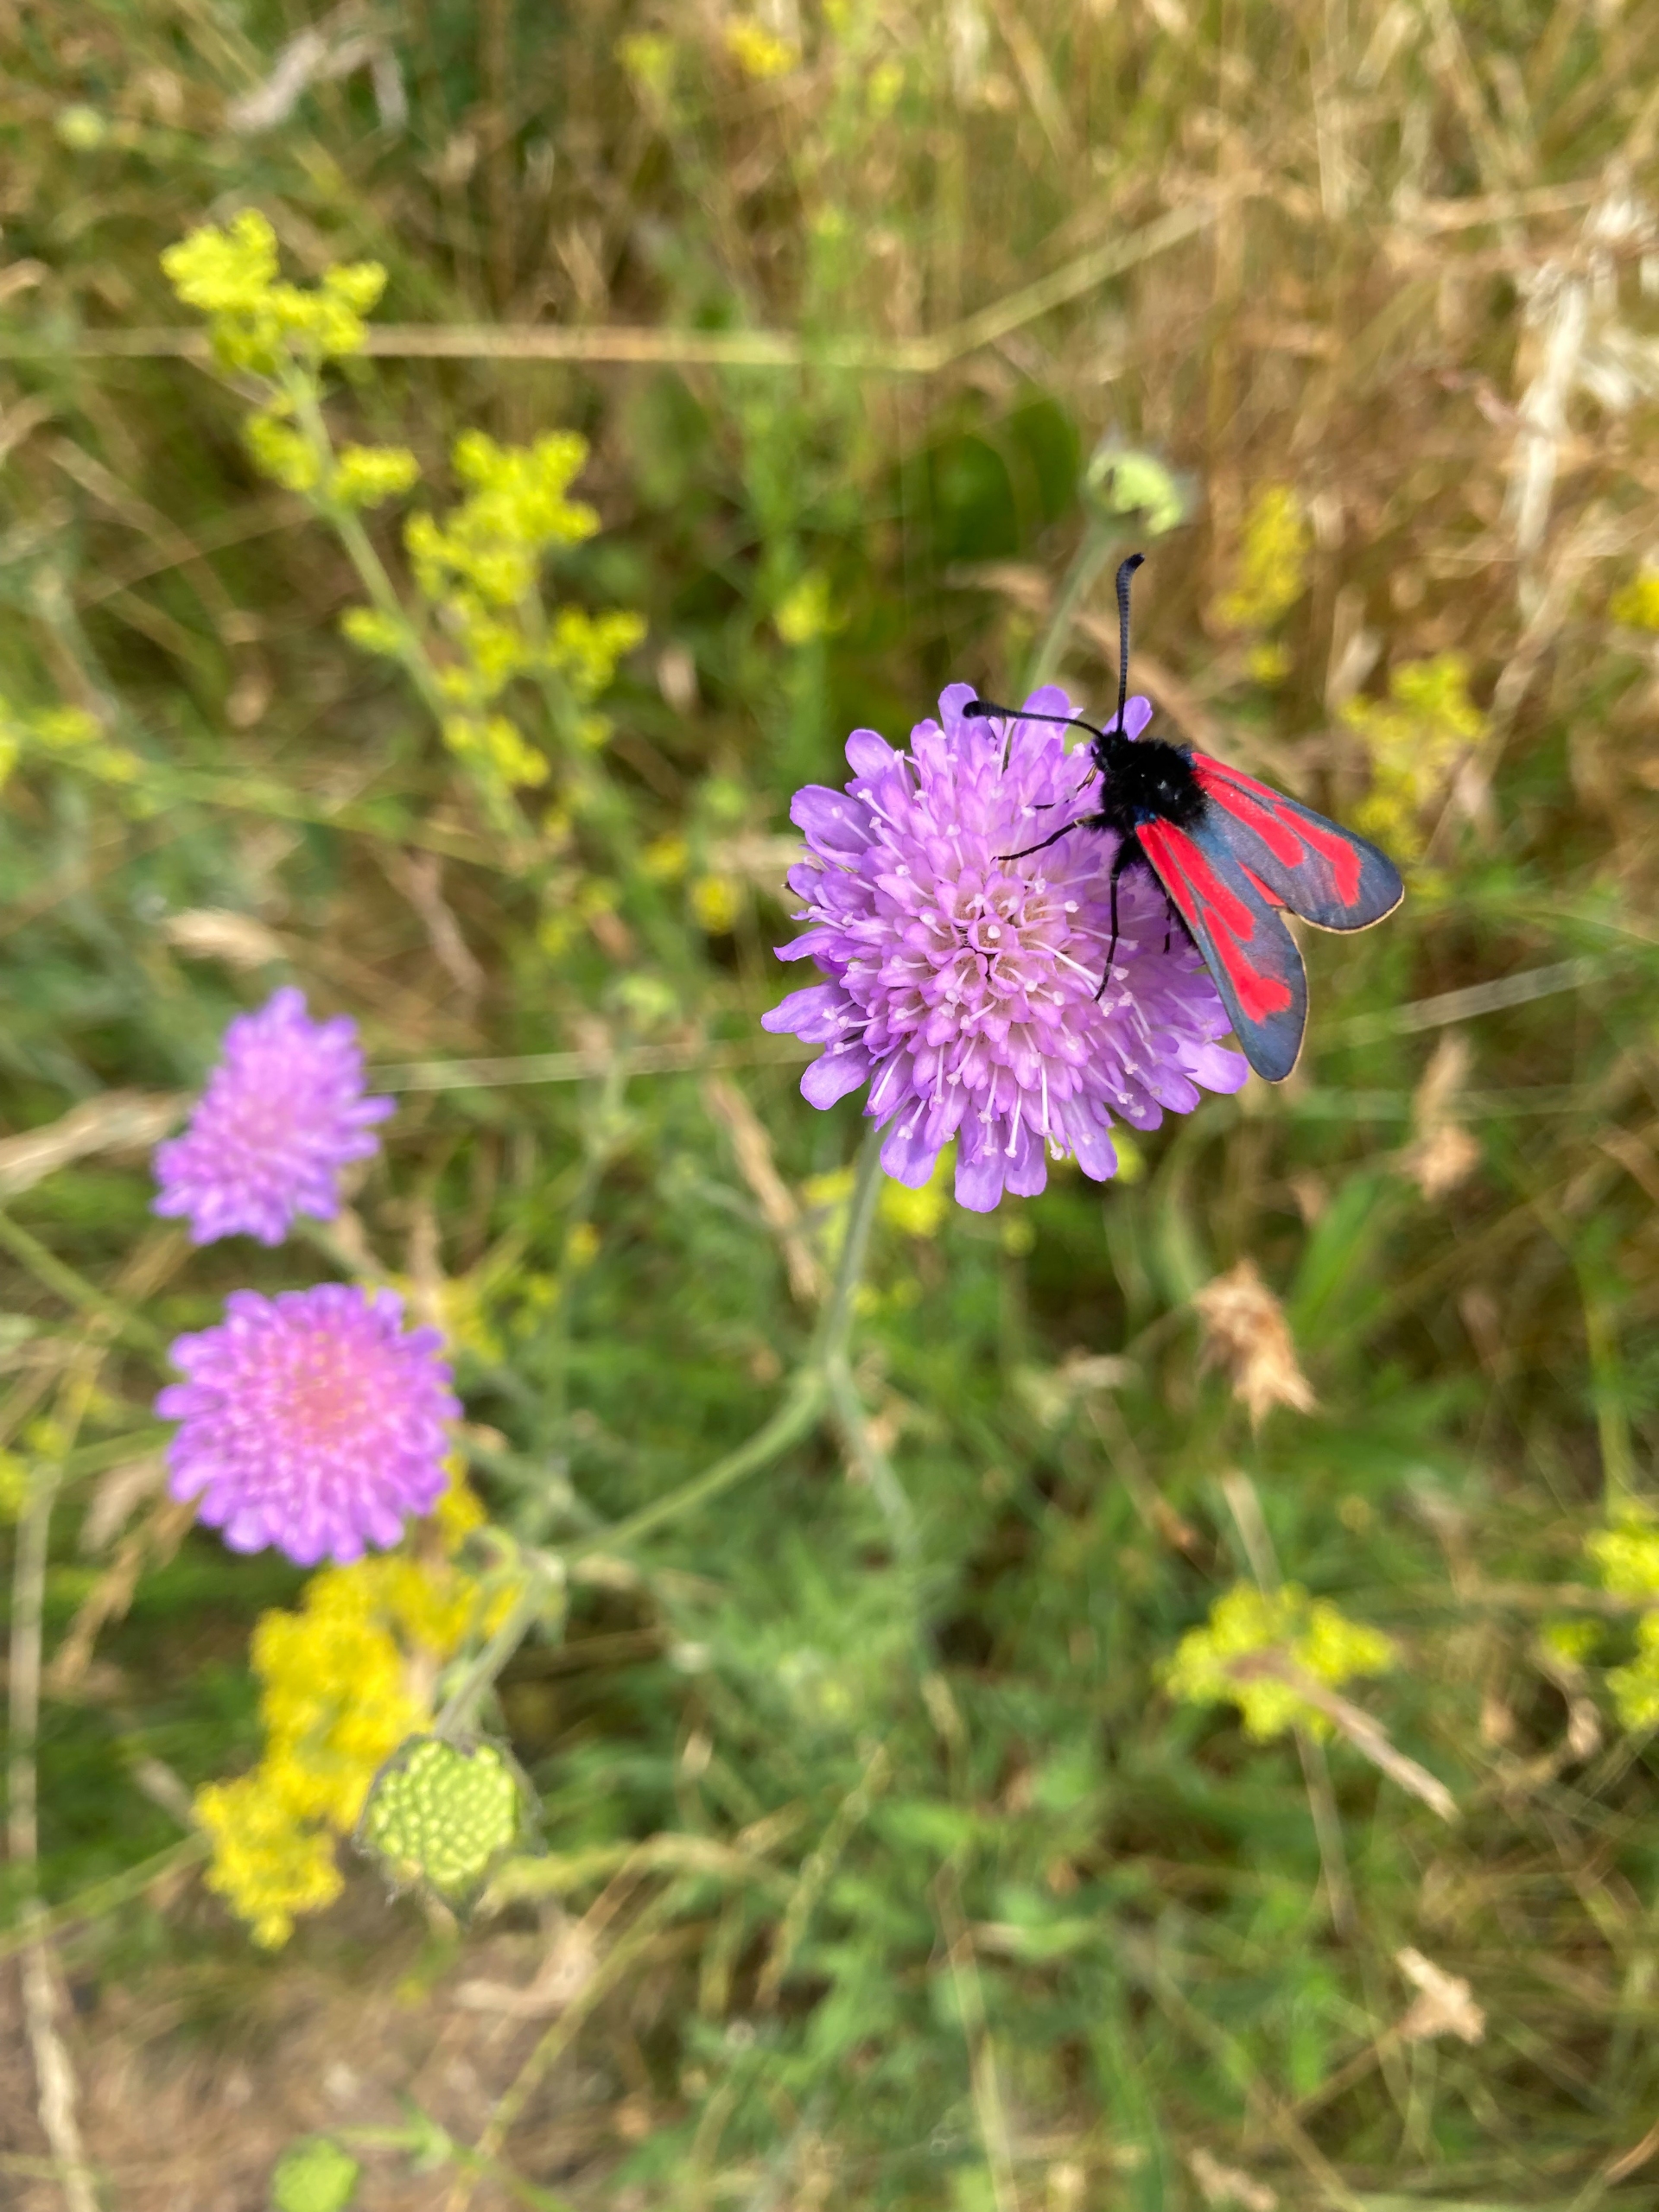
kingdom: Animalia
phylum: Arthropoda
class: Insecta
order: Lepidoptera
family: Zygaenidae
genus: Zygaena
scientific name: Zygaena minos
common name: Pimpernelkøllesværmer
